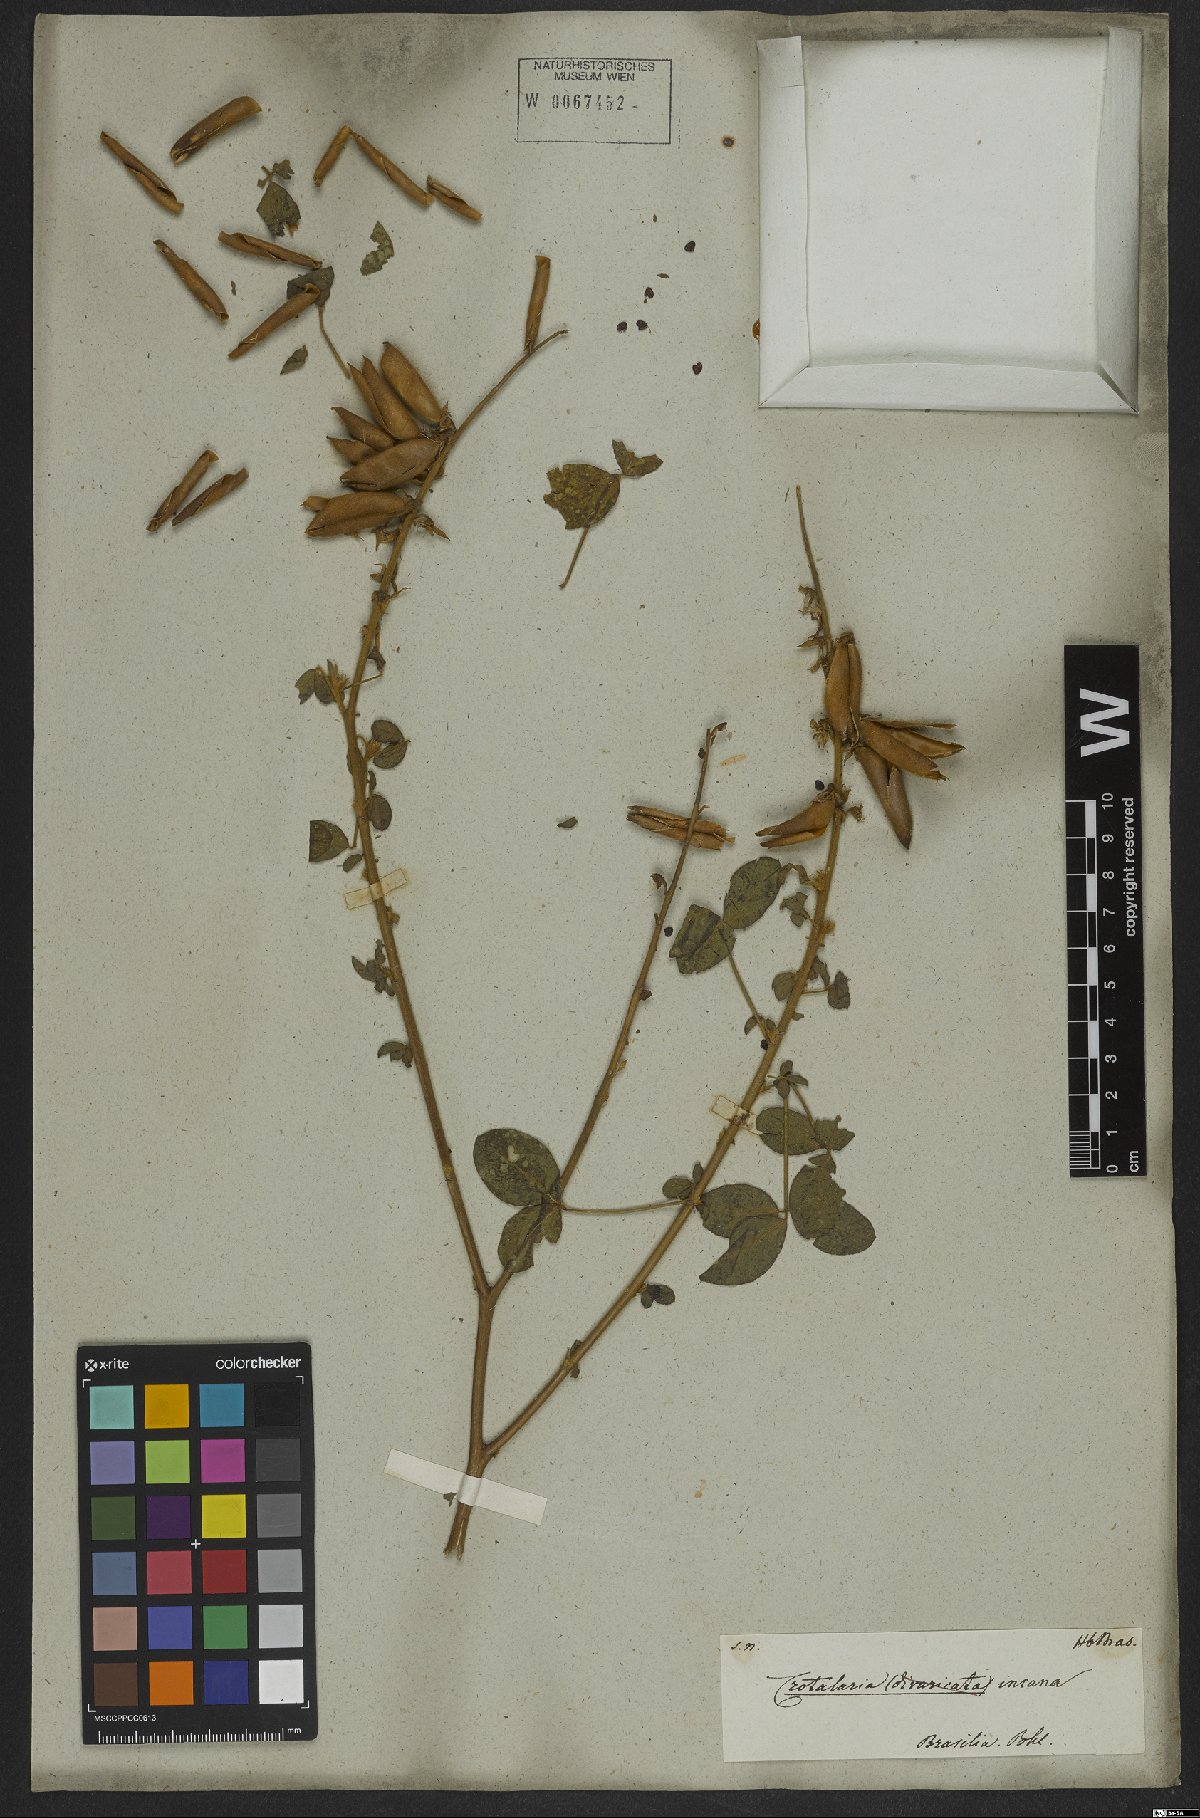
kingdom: Plantae
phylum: Tracheophyta
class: Magnoliopsida
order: Fabales
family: Fabaceae
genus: Crotalaria
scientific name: Crotalaria incana
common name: Shakeshake
